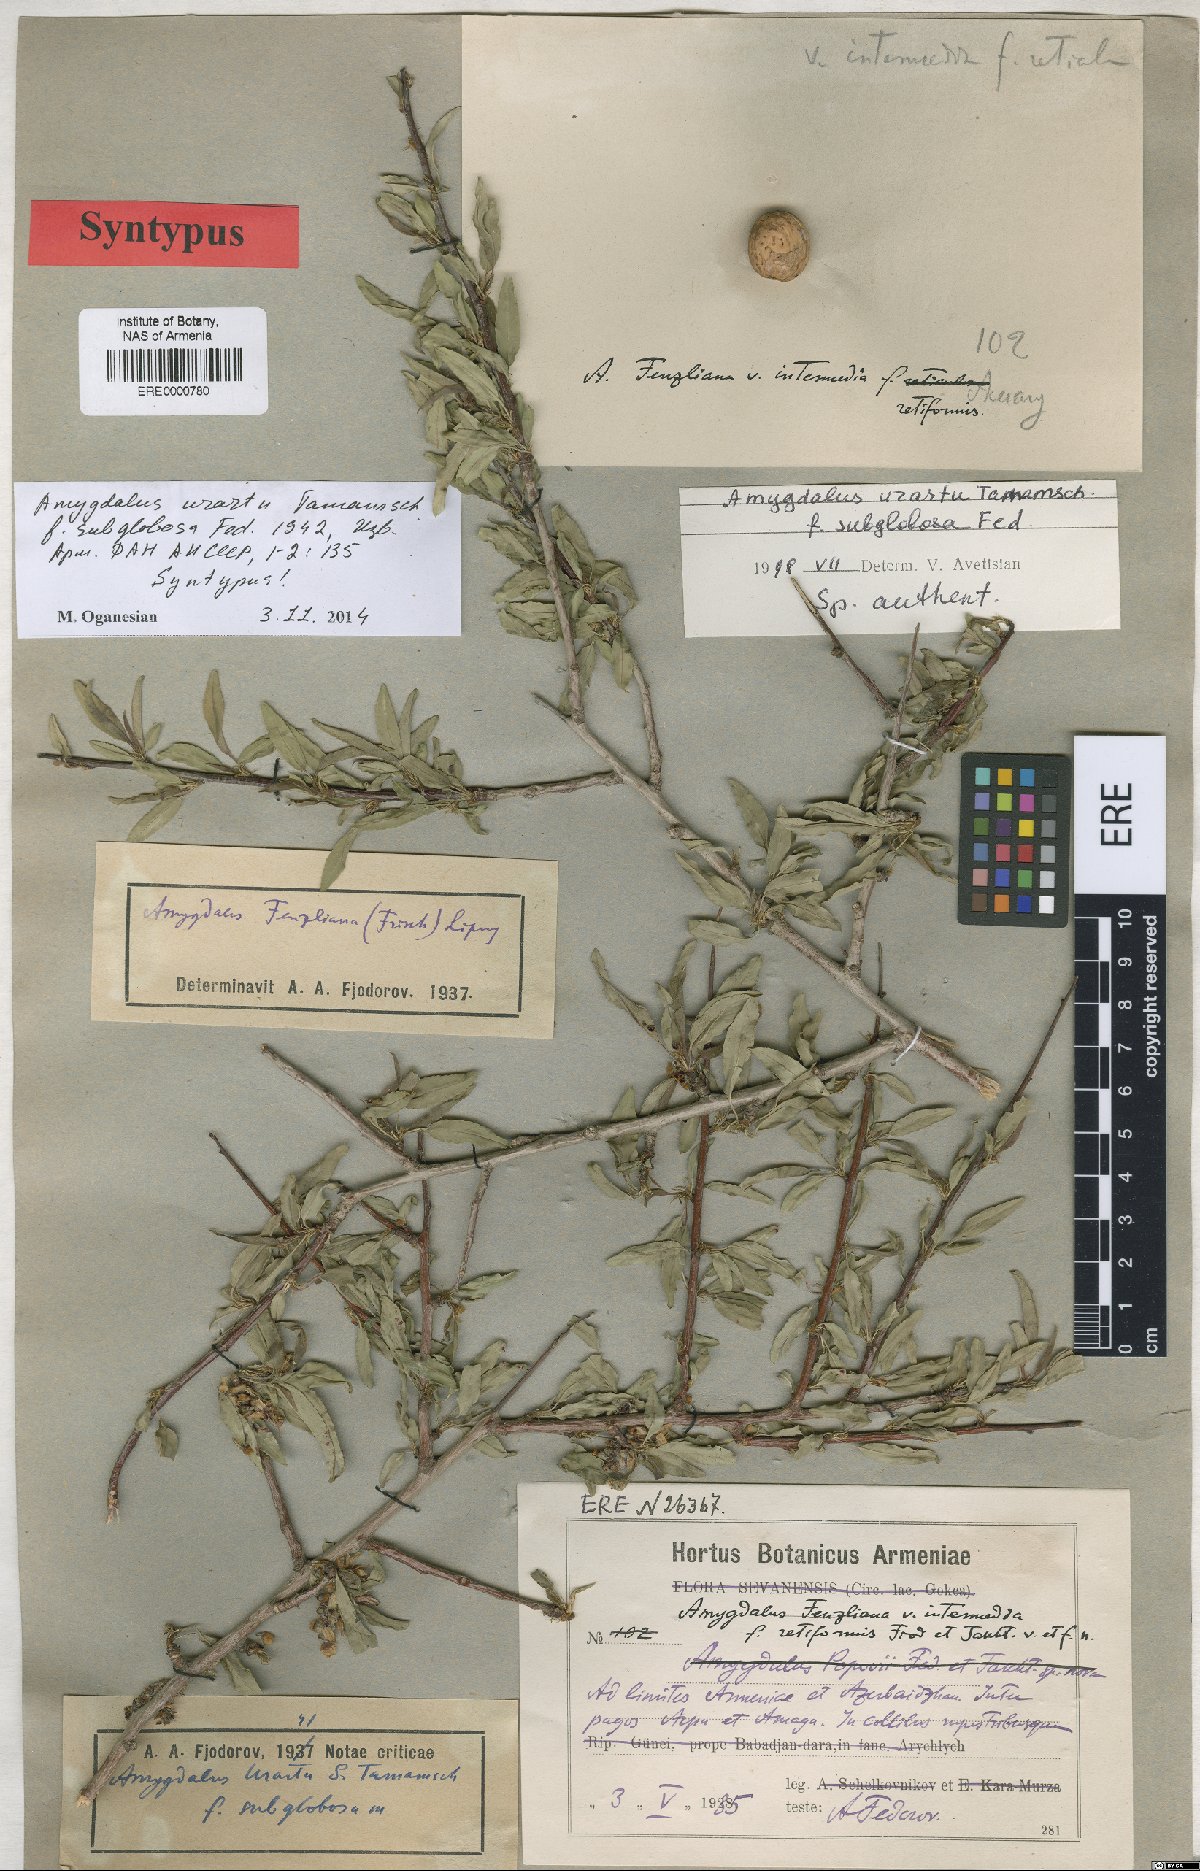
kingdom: Plantae
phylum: Tracheophyta
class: Magnoliopsida
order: Rosales
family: Rosaceae
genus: Prunus
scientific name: Prunus urartu
